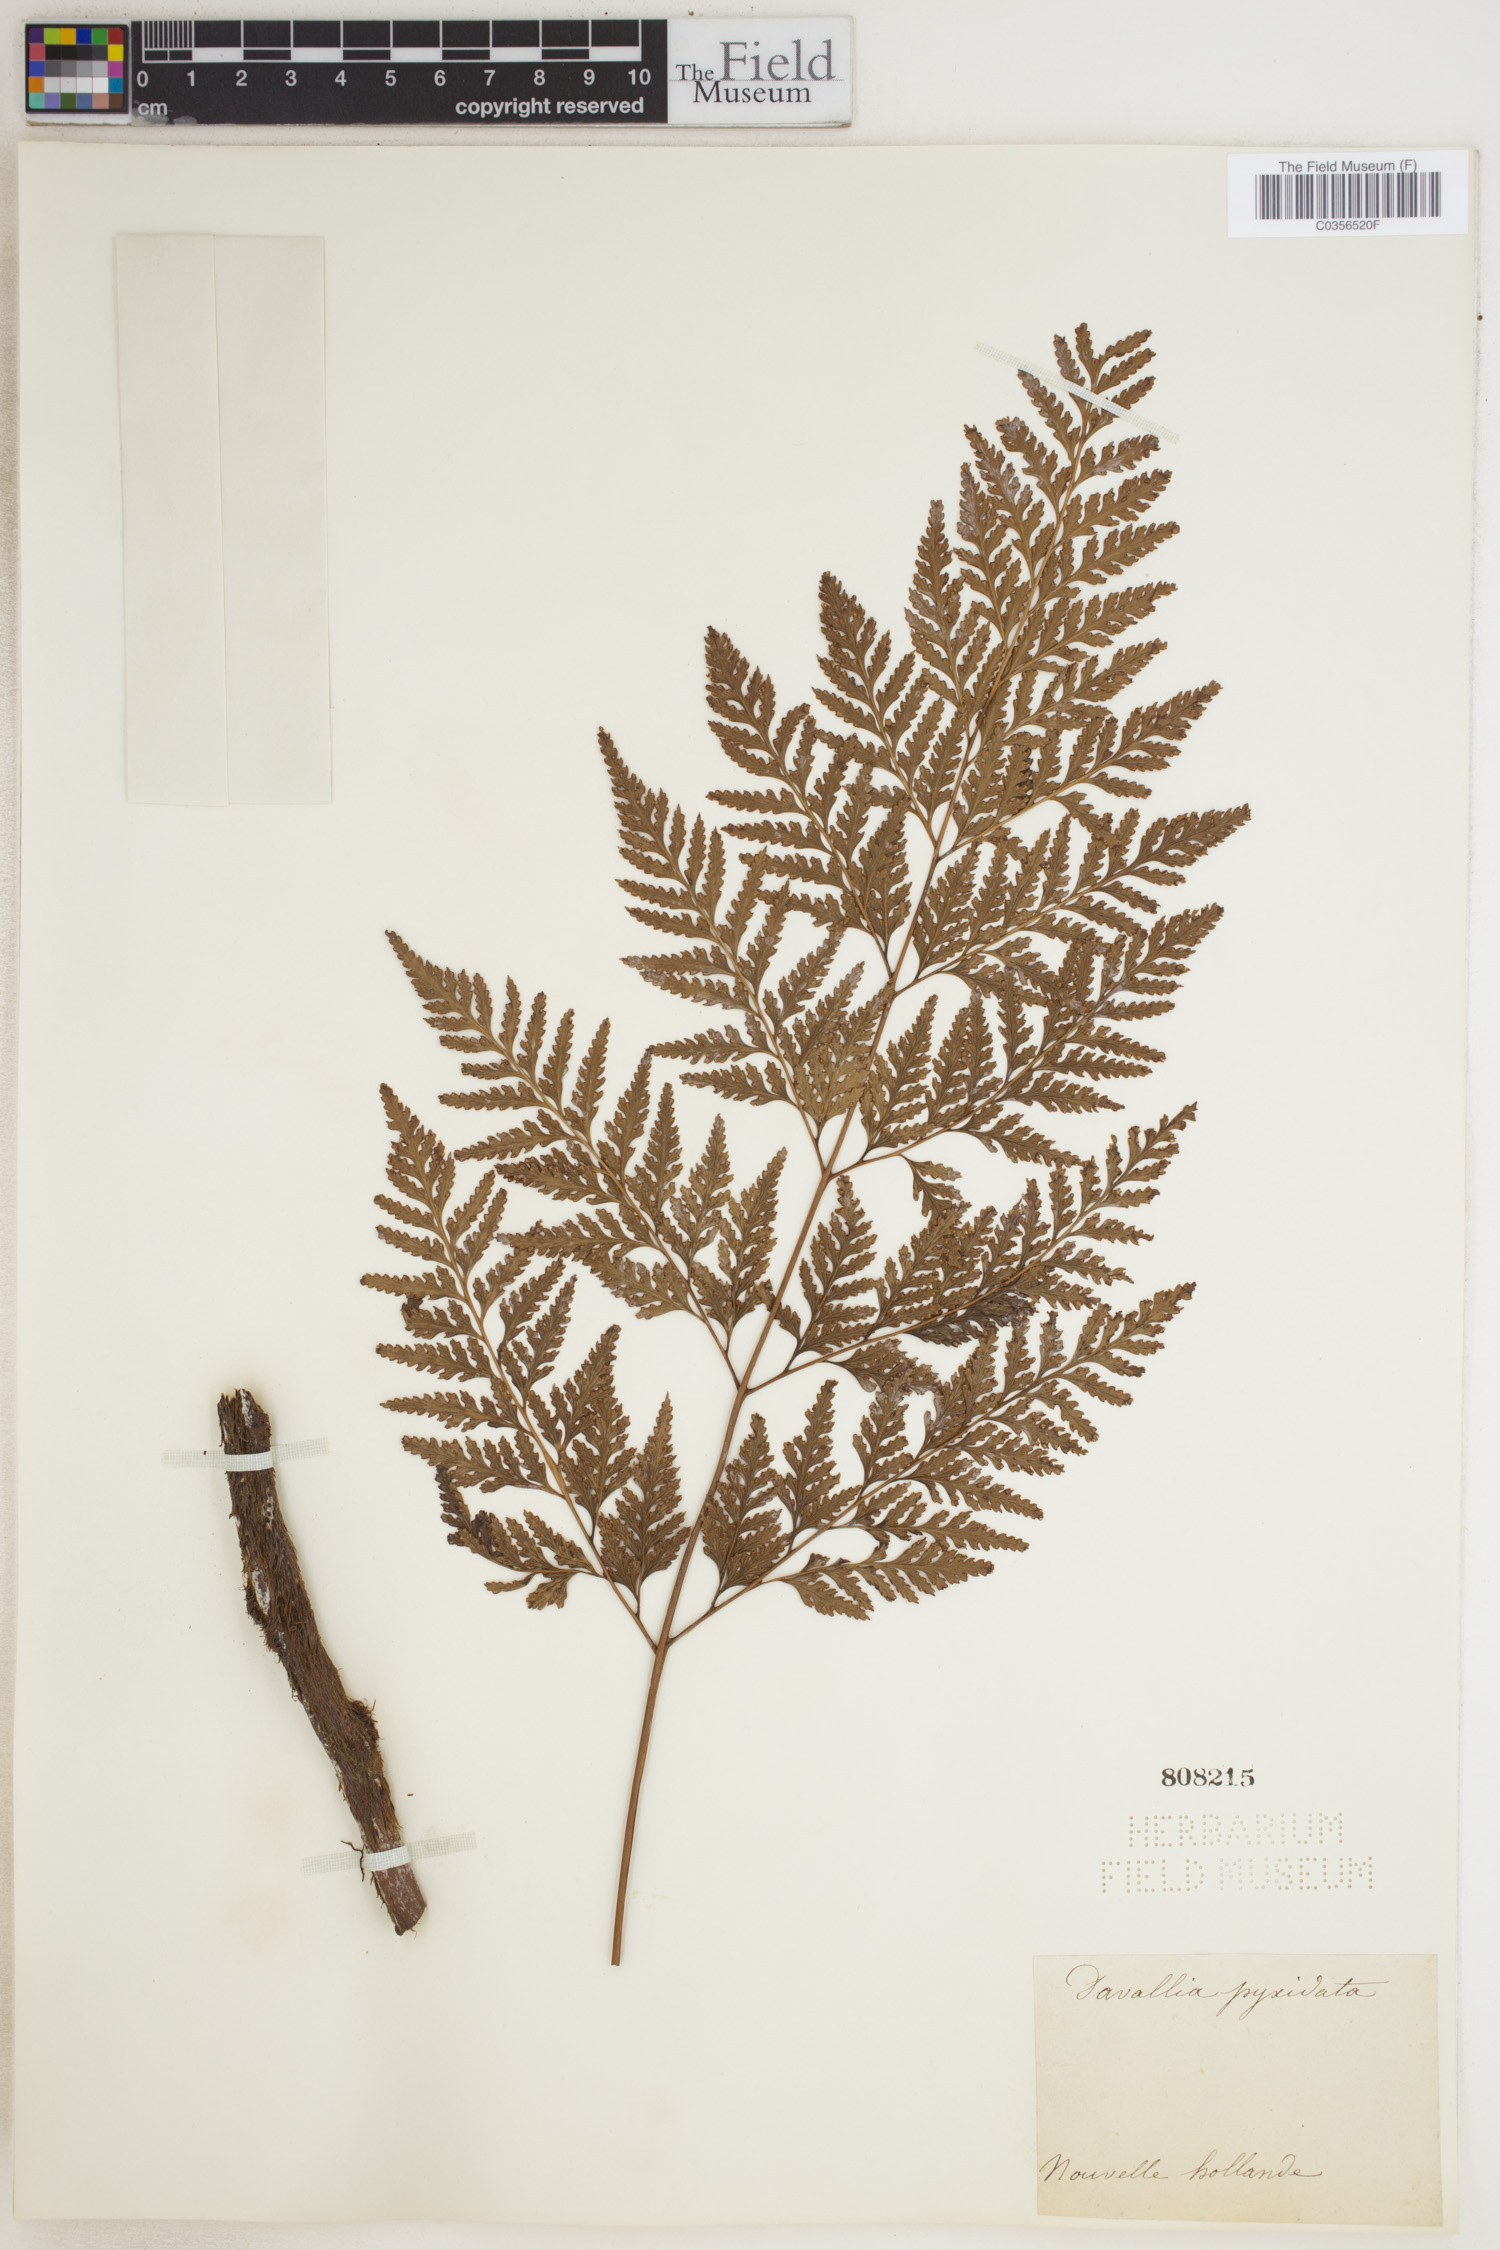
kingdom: Plantae
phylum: Tracheophyta
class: Polypodiopsida
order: Polypodiales
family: Davalliaceae
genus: Davallia
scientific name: Davallia pyxidata
